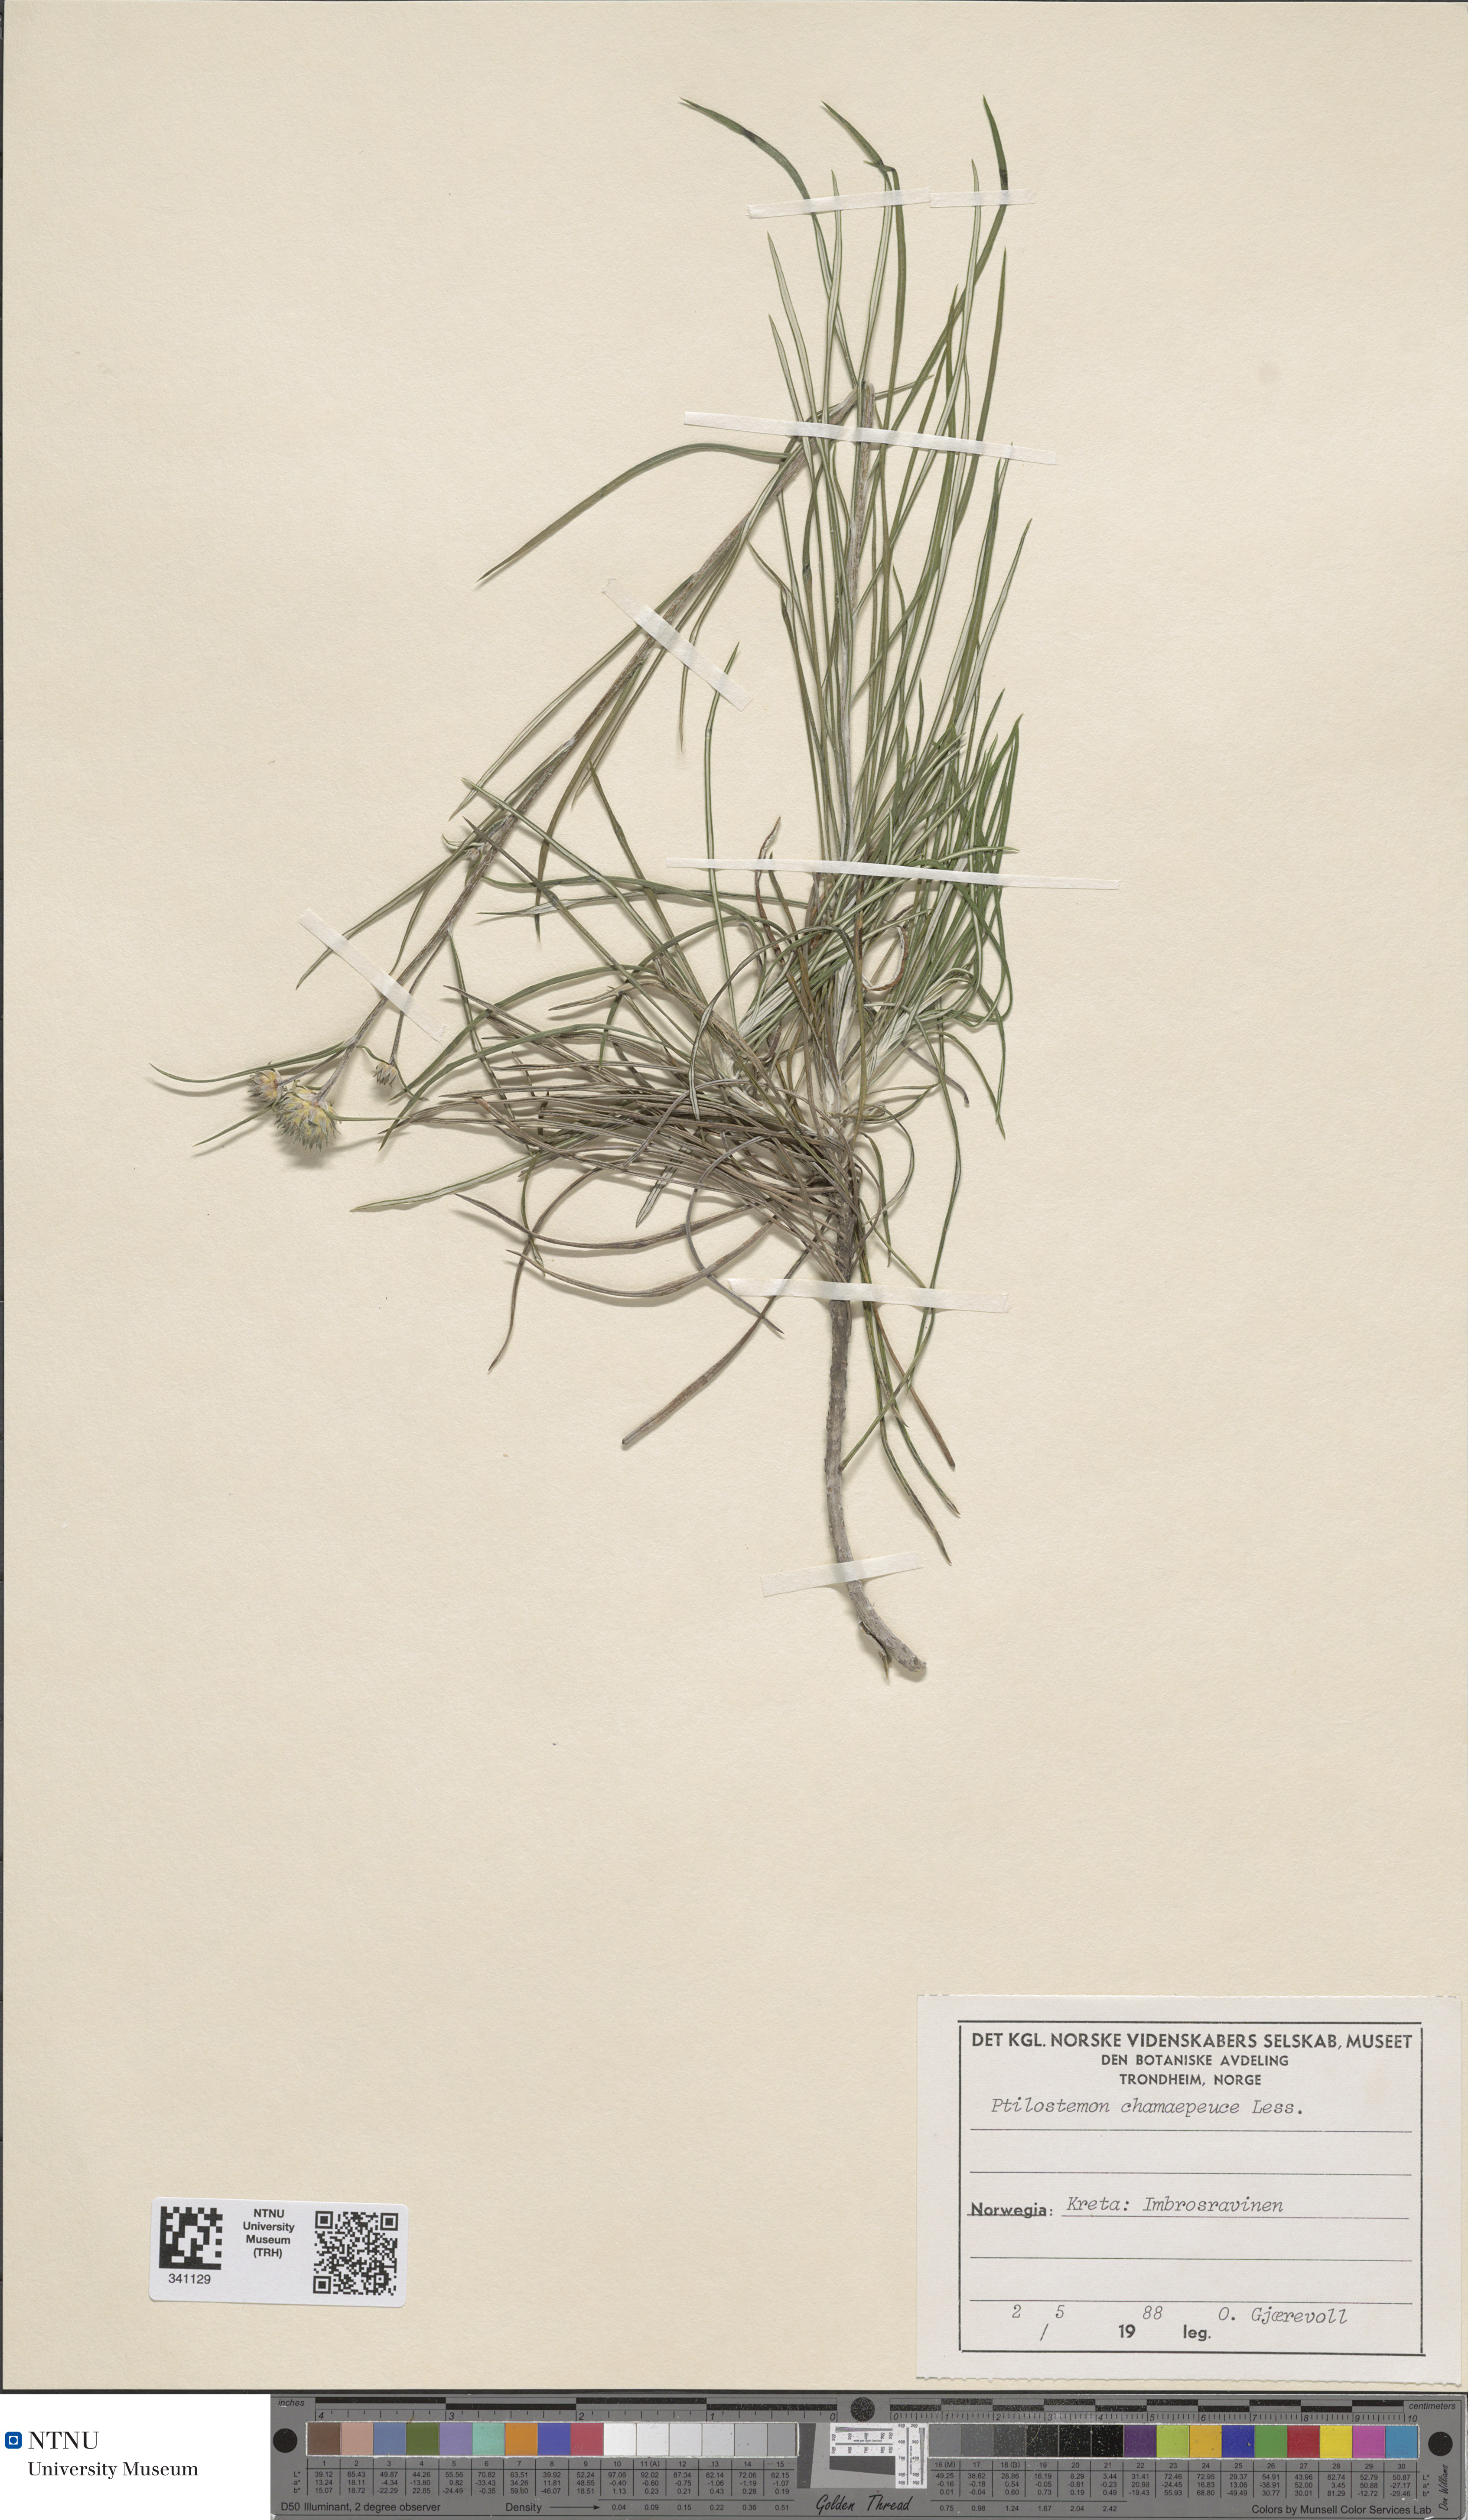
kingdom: Plantae
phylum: Tracheophyta
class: Magnoliopsida
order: Asterales
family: Asteraceae
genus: Ptilostemon
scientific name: Ptilostemon chamaepeuce
